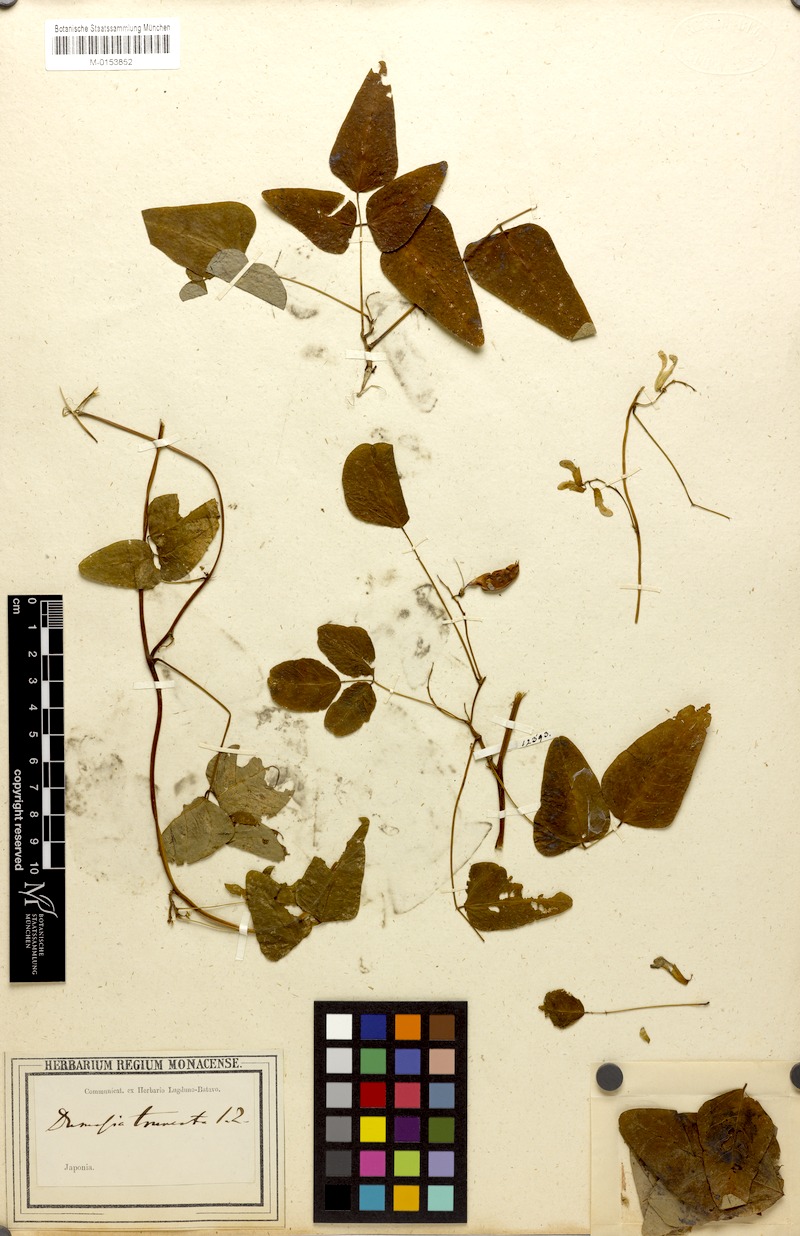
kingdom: Plantae
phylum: Tracheophyta
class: Magnoliopsida
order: Fabales
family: Fabaceae
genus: Dumasia
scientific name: Dumasia truncata
